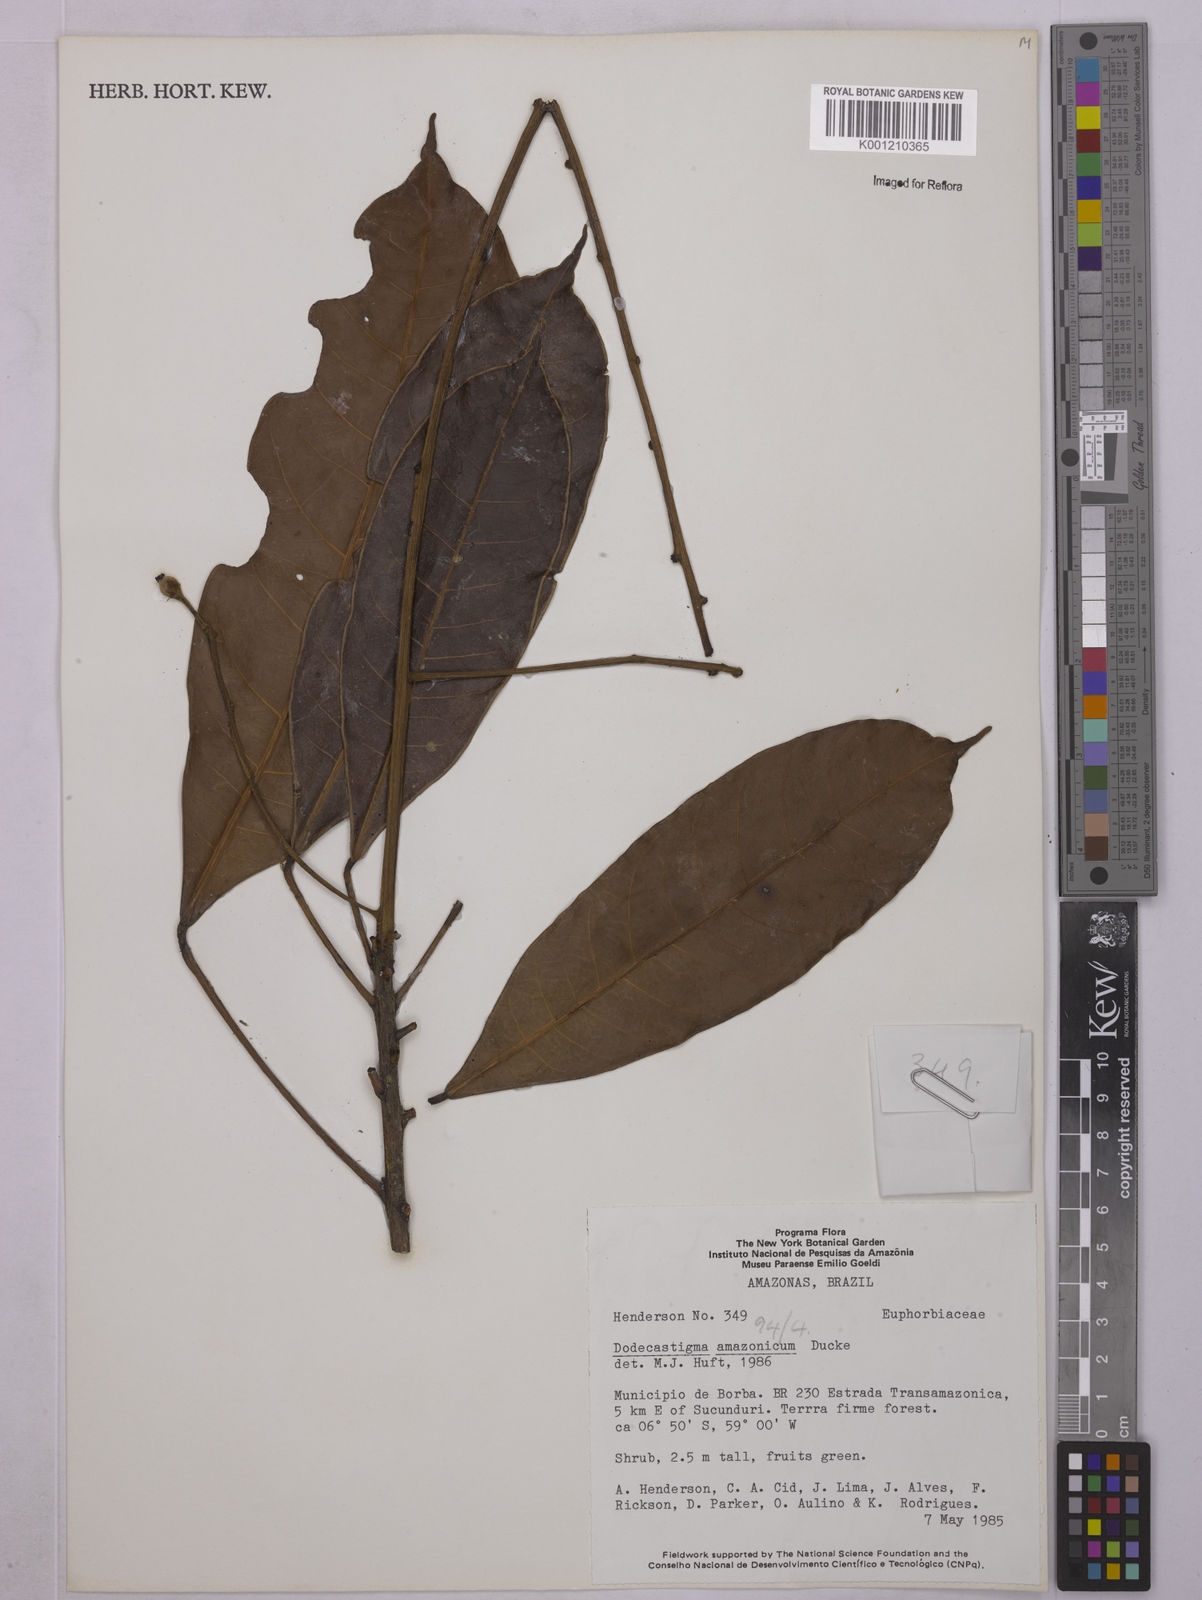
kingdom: Plantae
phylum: Tracheophyta
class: Magnoliopsida
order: Malpighiales
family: Euphorbiaceae
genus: Dodecastigma
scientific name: Dodecastigma amazonicum
